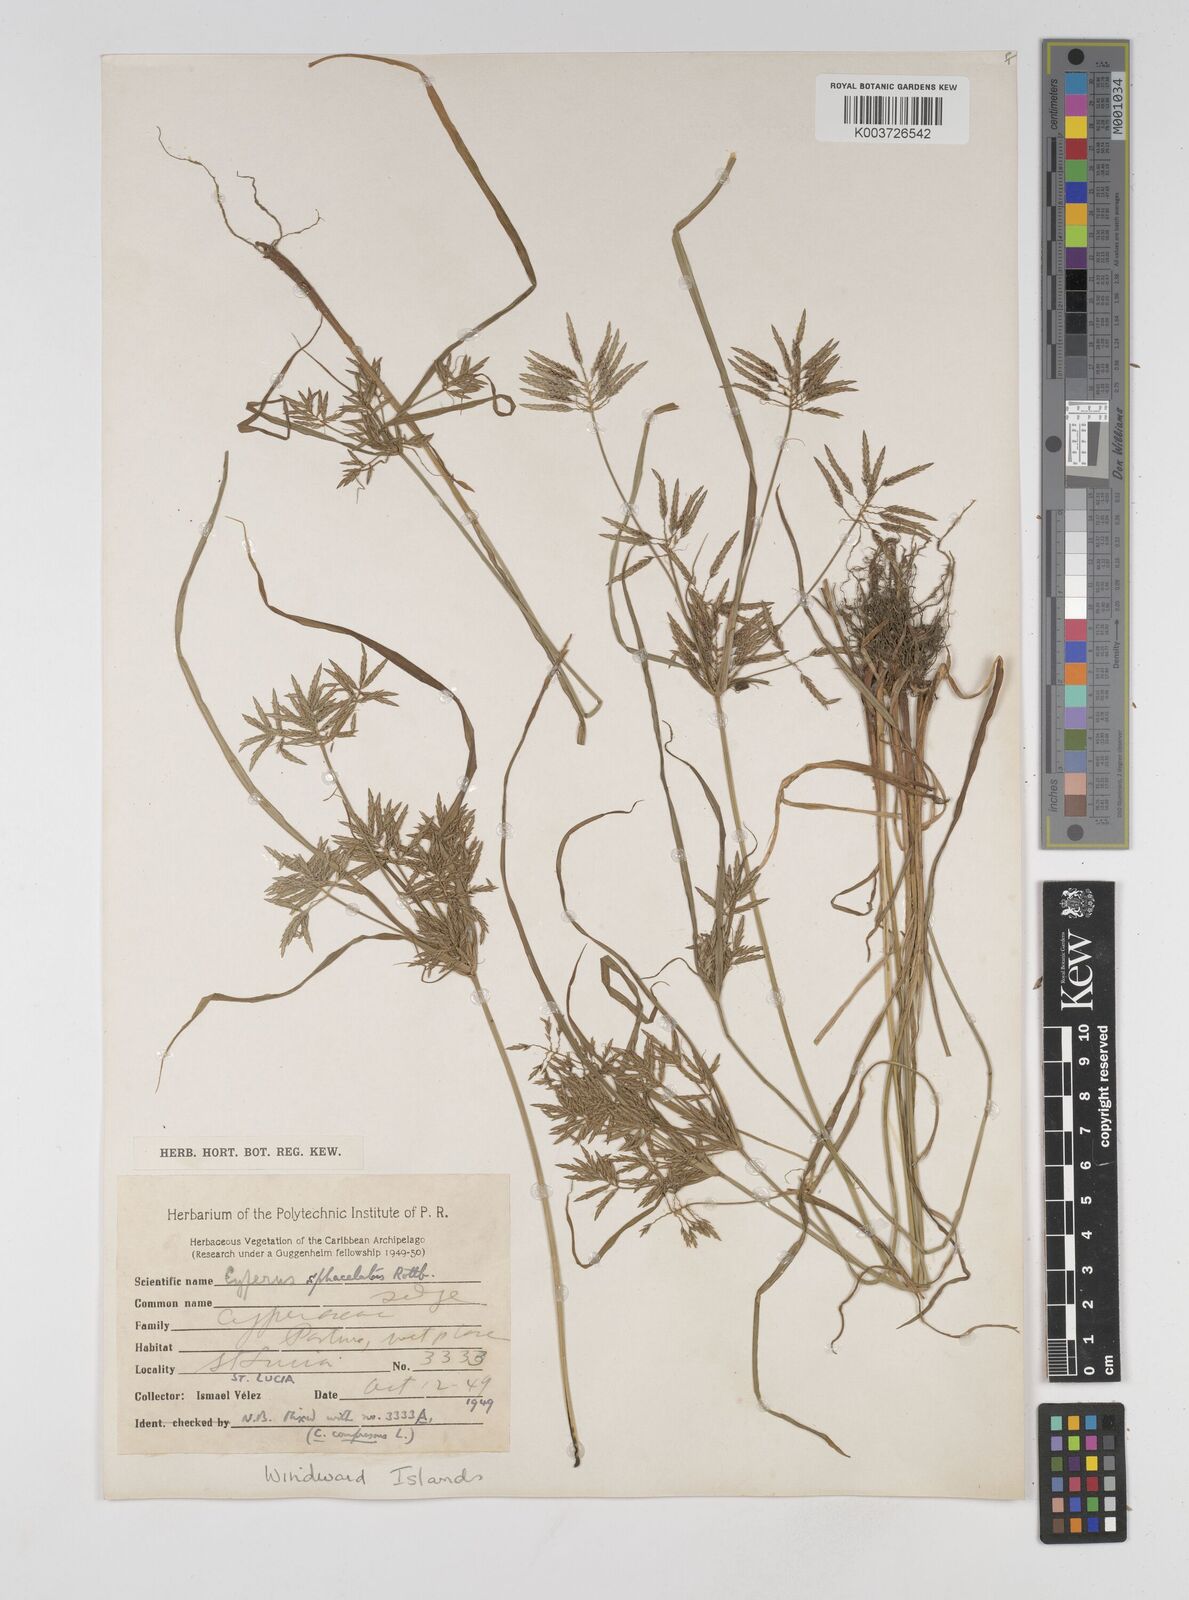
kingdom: Plantae
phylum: Tracheophyta
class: Liliopsida
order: Poales
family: Cyperaceae
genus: Cyperus
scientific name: Cyperus sphacelatus
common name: Roadside flatsedge
